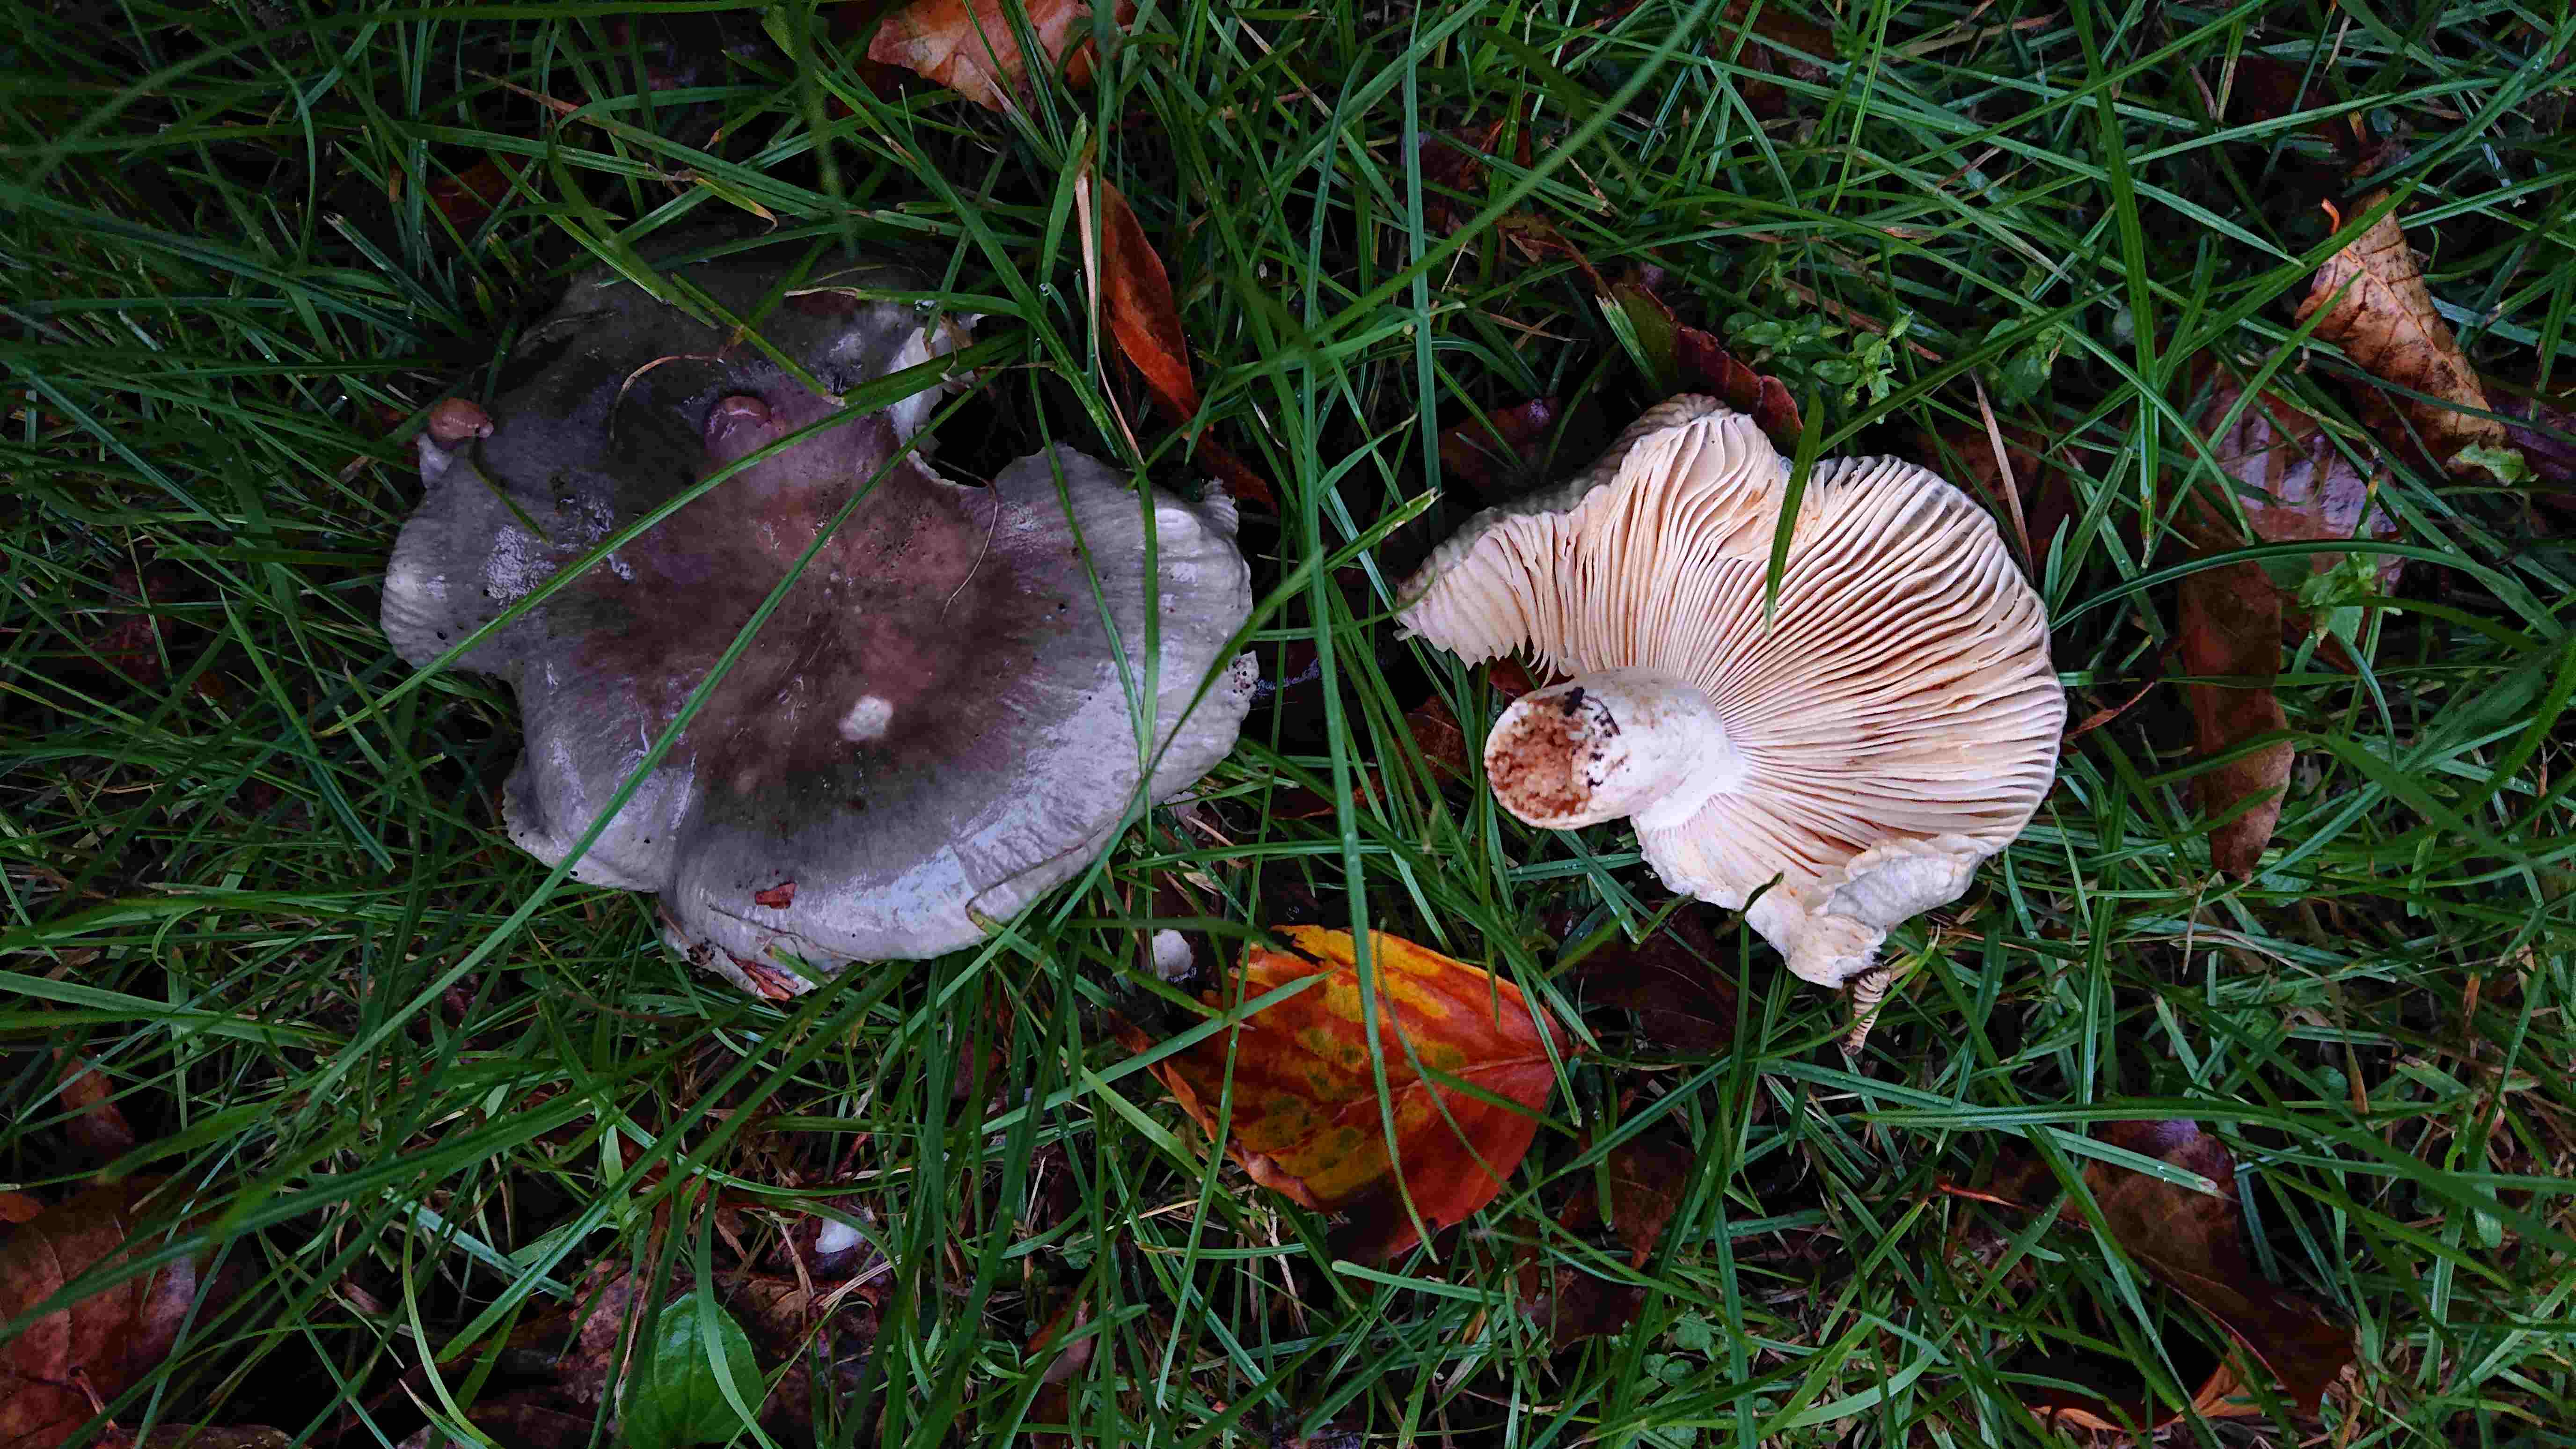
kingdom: Fungi
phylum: Basidiomycota
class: Agaricomycetes
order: Russulales
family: Russulaceae
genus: Russula
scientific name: Russula
